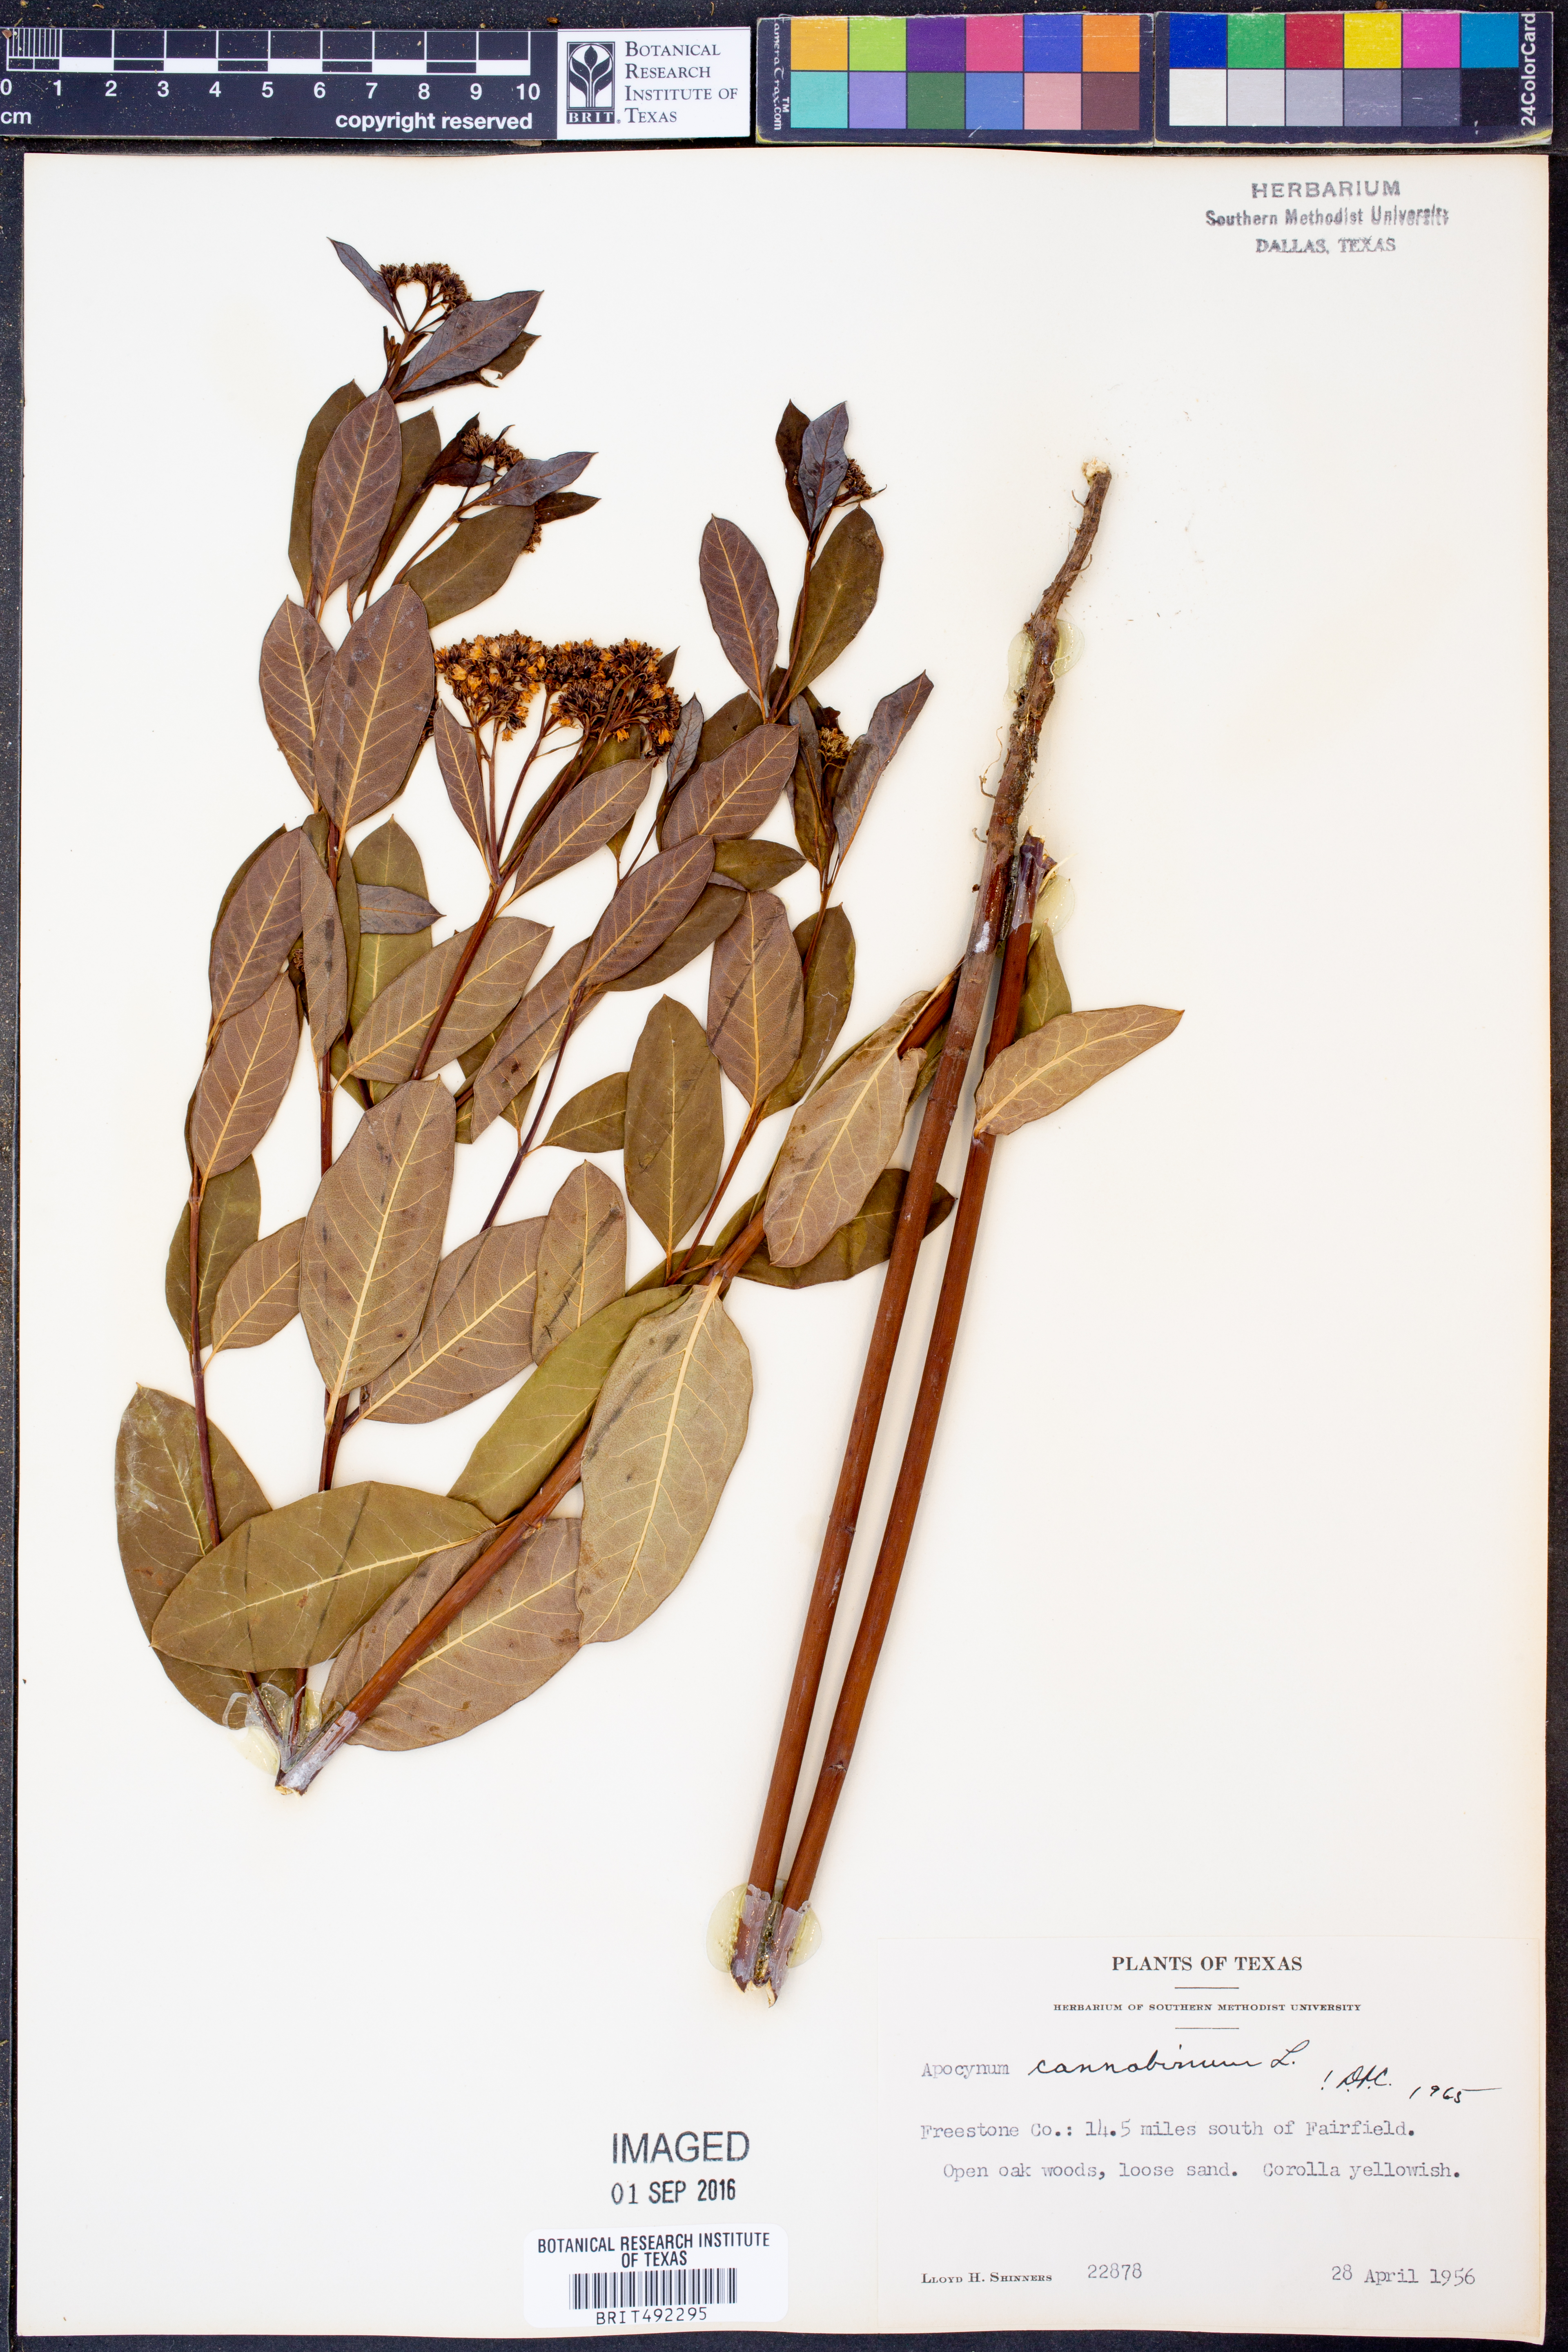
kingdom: Plantae
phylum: Tracheophyta
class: Magnoliopsida
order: Gentianales
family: Apocynaceae
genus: Apocynum
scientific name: Apocynum cannabinum
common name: Hemp dogbane
